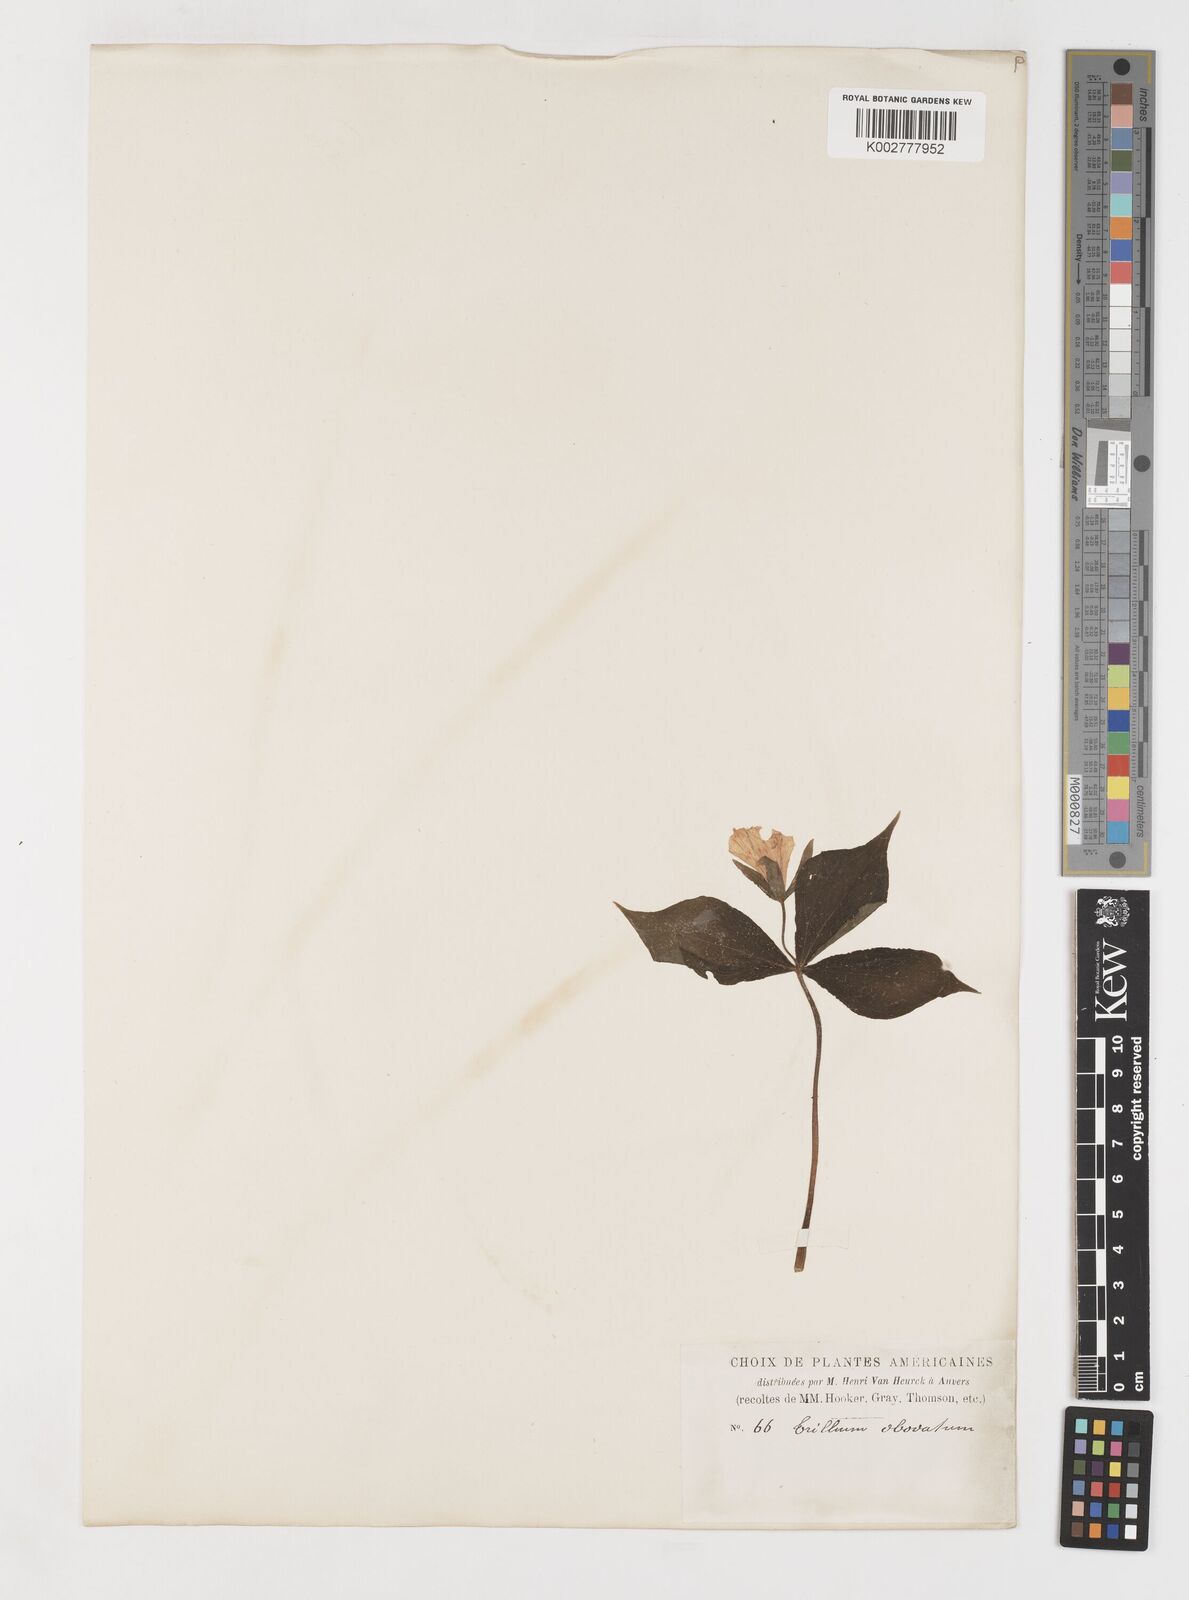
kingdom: Plantae
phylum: Tracheophyta
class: Liliopsida
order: Liliales
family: Melanthiaceae
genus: Trillium
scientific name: Trillium ovatum
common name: Pacific trillium
